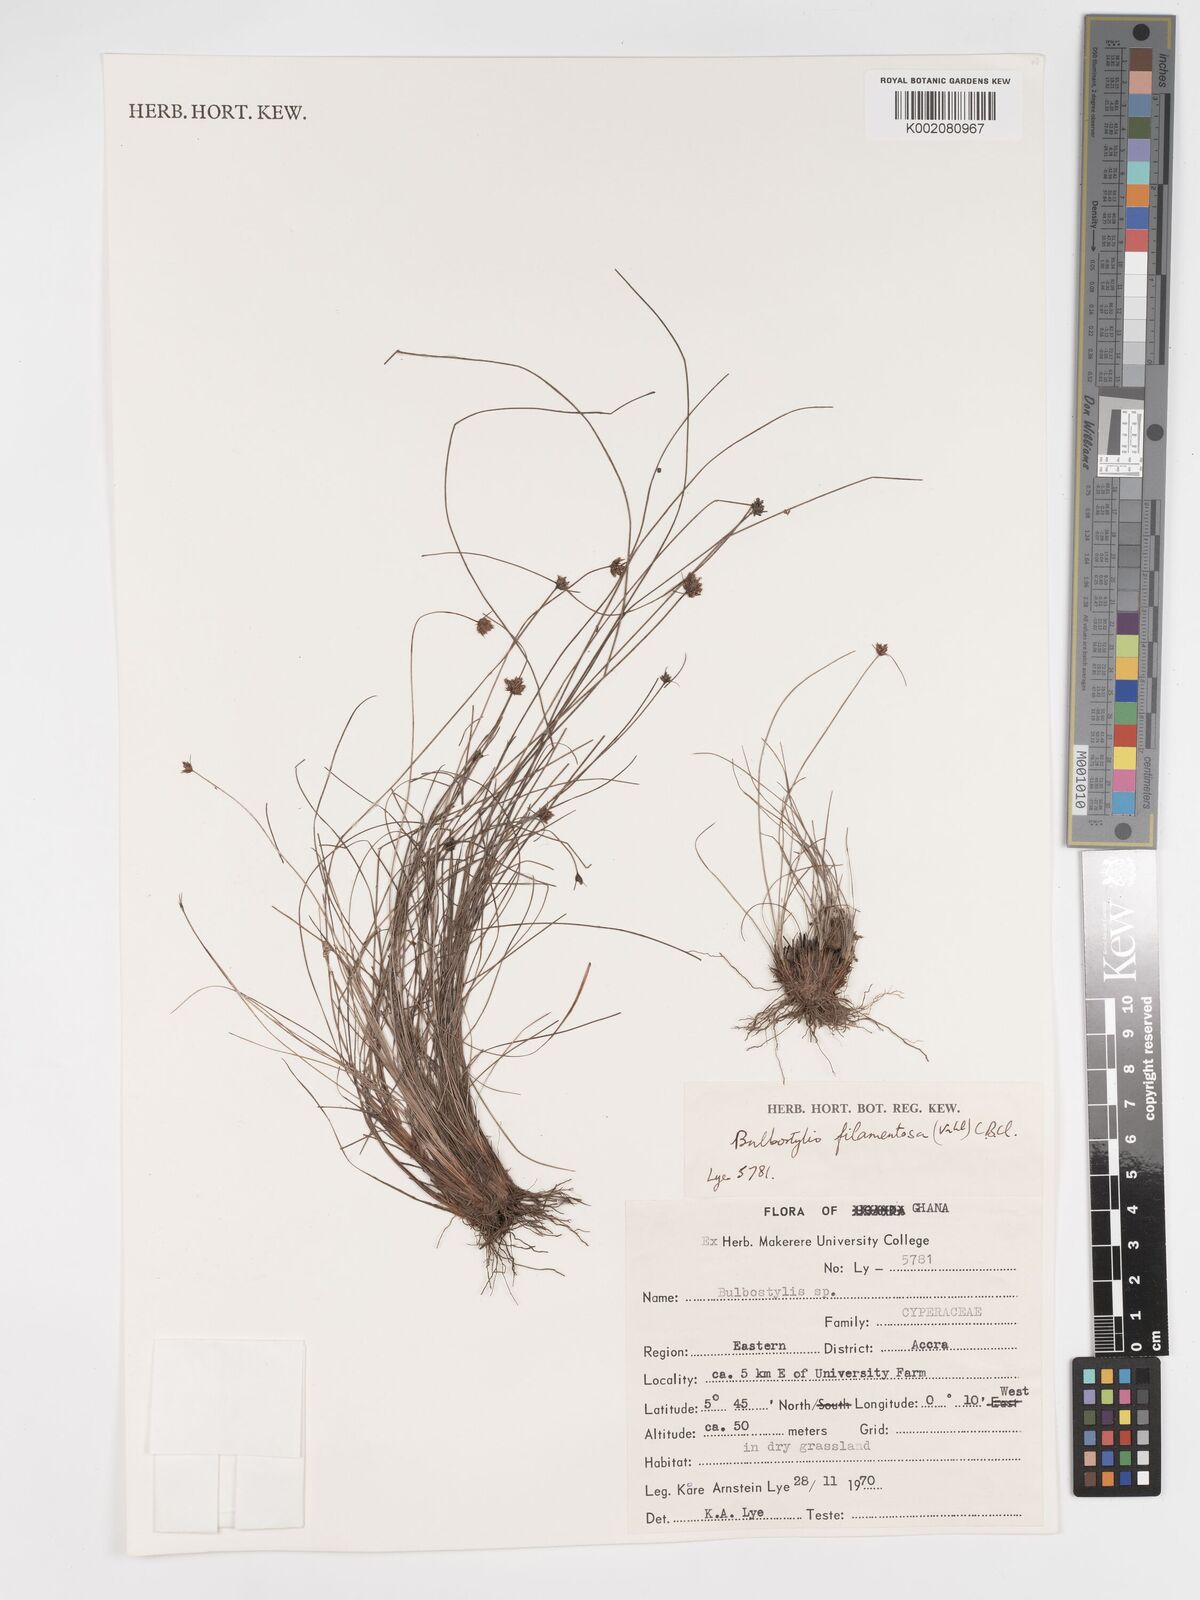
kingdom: Plantae
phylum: Tracheophyta
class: Liliopsida
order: Poales
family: Cyperaceae
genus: Bulbostylis
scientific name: Bulbostylis filamentosa
